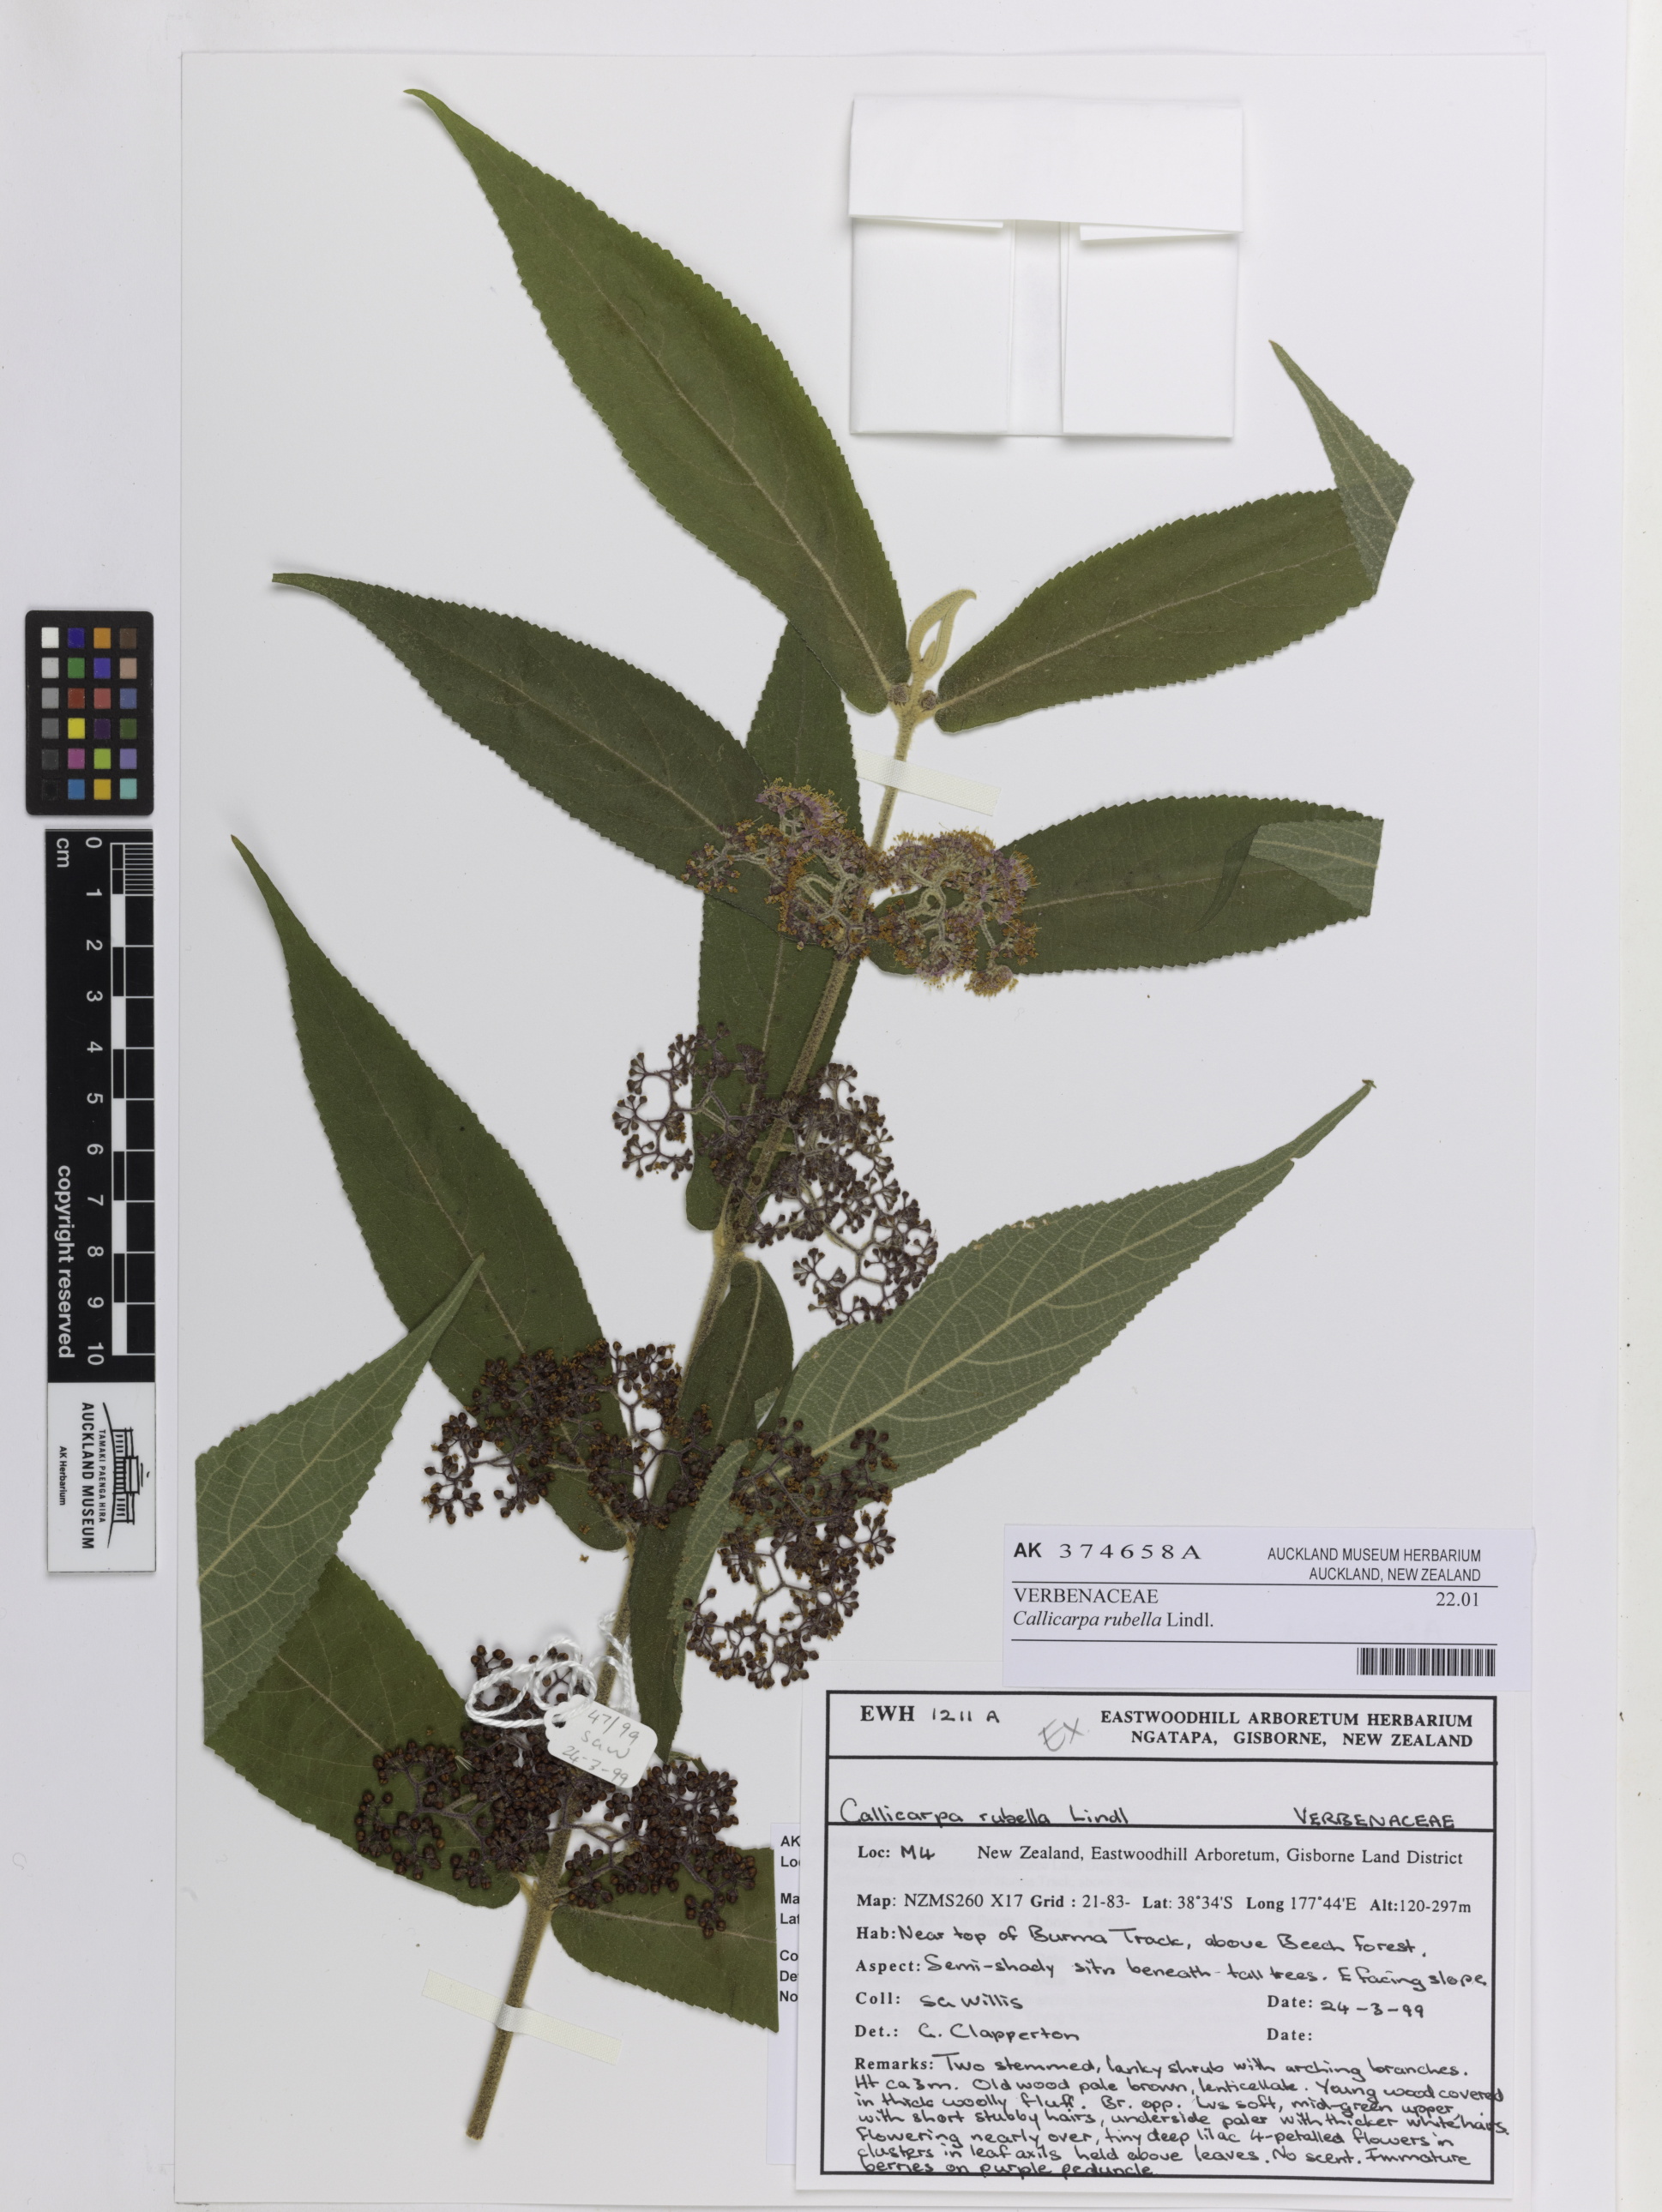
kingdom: Plantae
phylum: Tracheophyta
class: Magnoliopsida
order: Lamiales
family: Lamiaceae
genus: Callicarpa
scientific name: Callicarpa rubella
